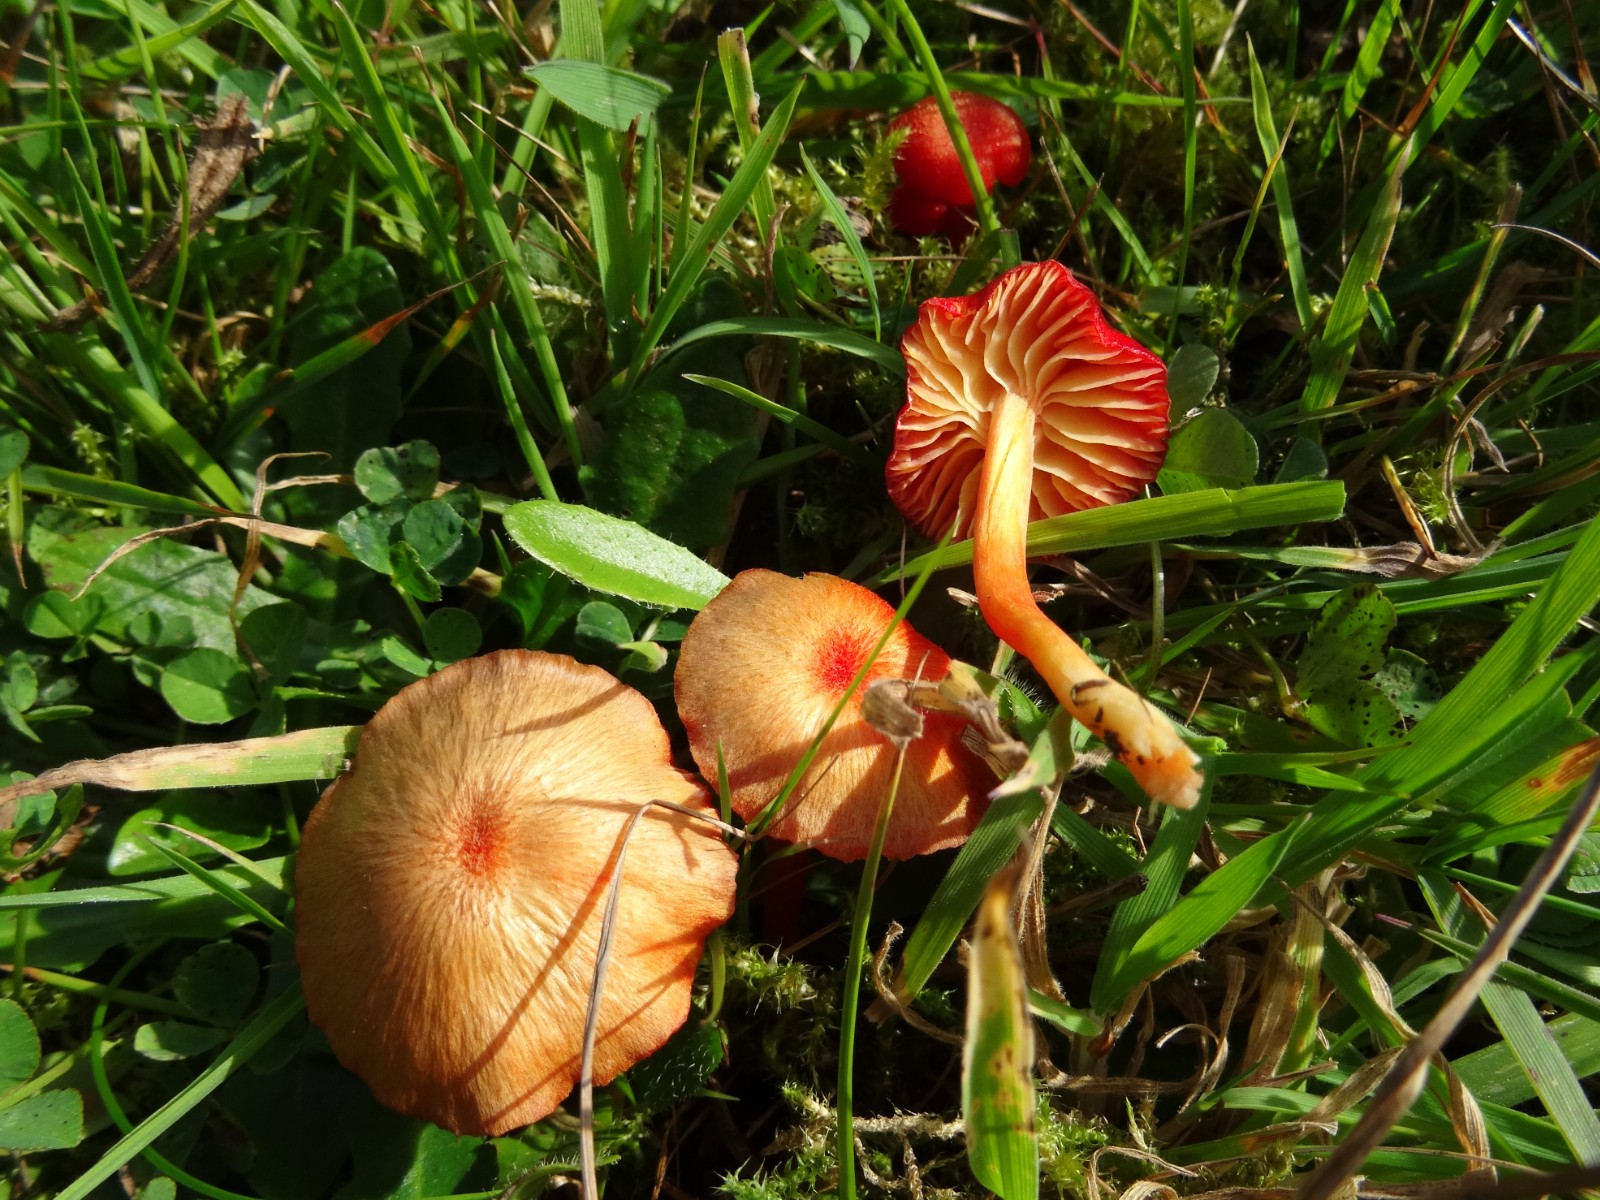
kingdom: Fungi
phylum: Basidiomycota
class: Agaricomycetes
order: Agaricales
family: Hygrophoraceae
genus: Hygrocybe
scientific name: Hygrocybe helobia
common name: hvidløgs-vokshat
